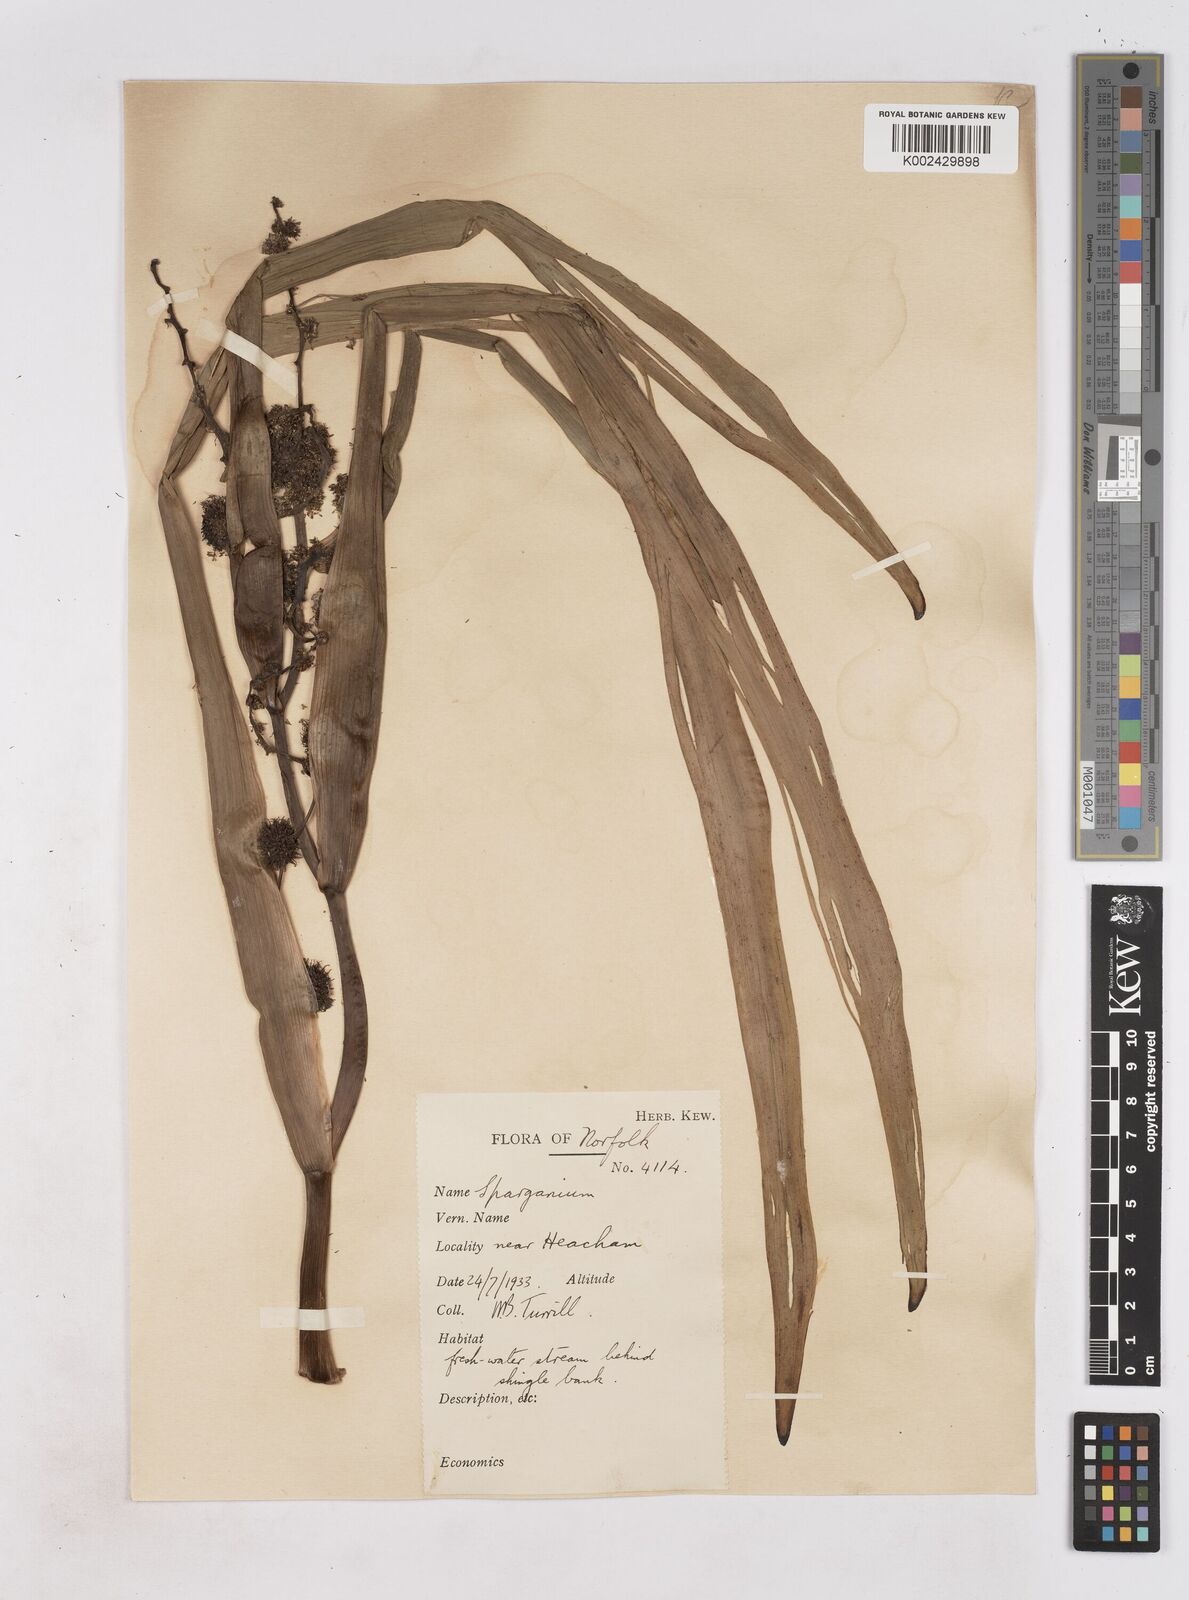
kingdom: Plantae
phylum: Tracheophyta
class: Liliopsida
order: Poales
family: Typhaceae
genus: Sparganium
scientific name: Sparganium erectum
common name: Branched bur-reed
